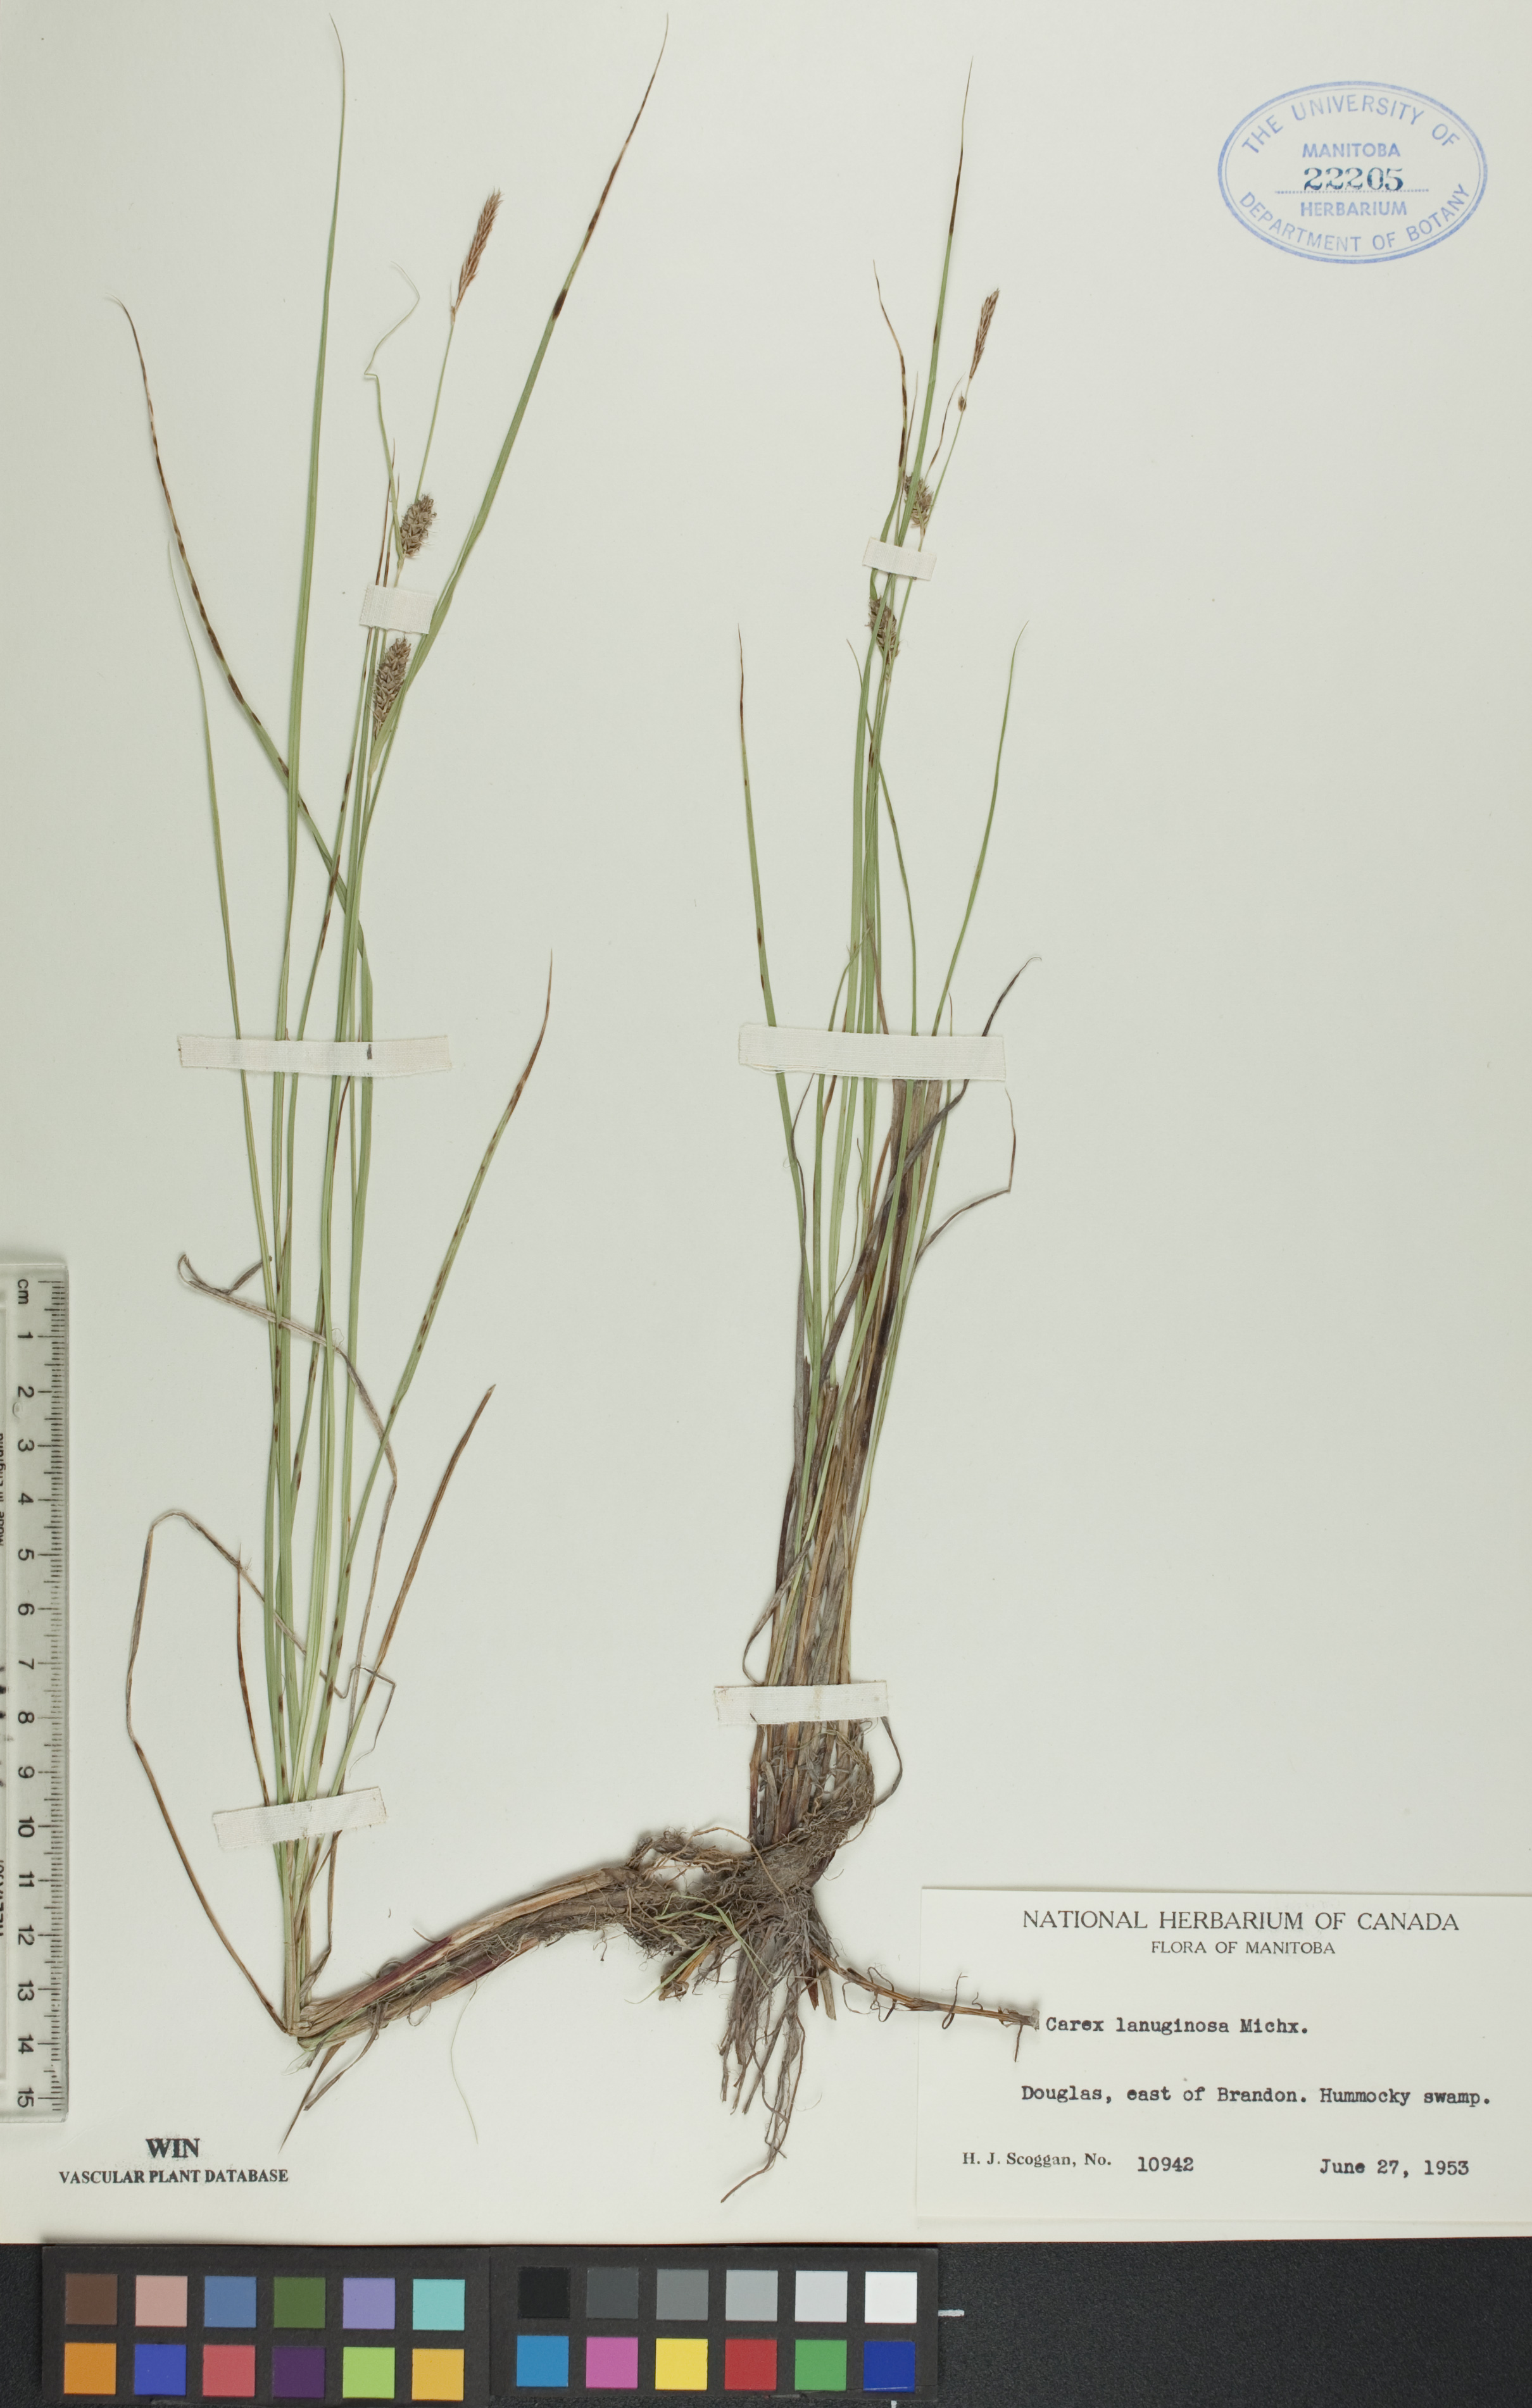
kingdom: Plantae
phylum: Tracheophyta
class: Liliopsida
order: Poales
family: Cyperaceae
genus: Carex
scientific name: Carex lasiocarpa
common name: Slender sedge
